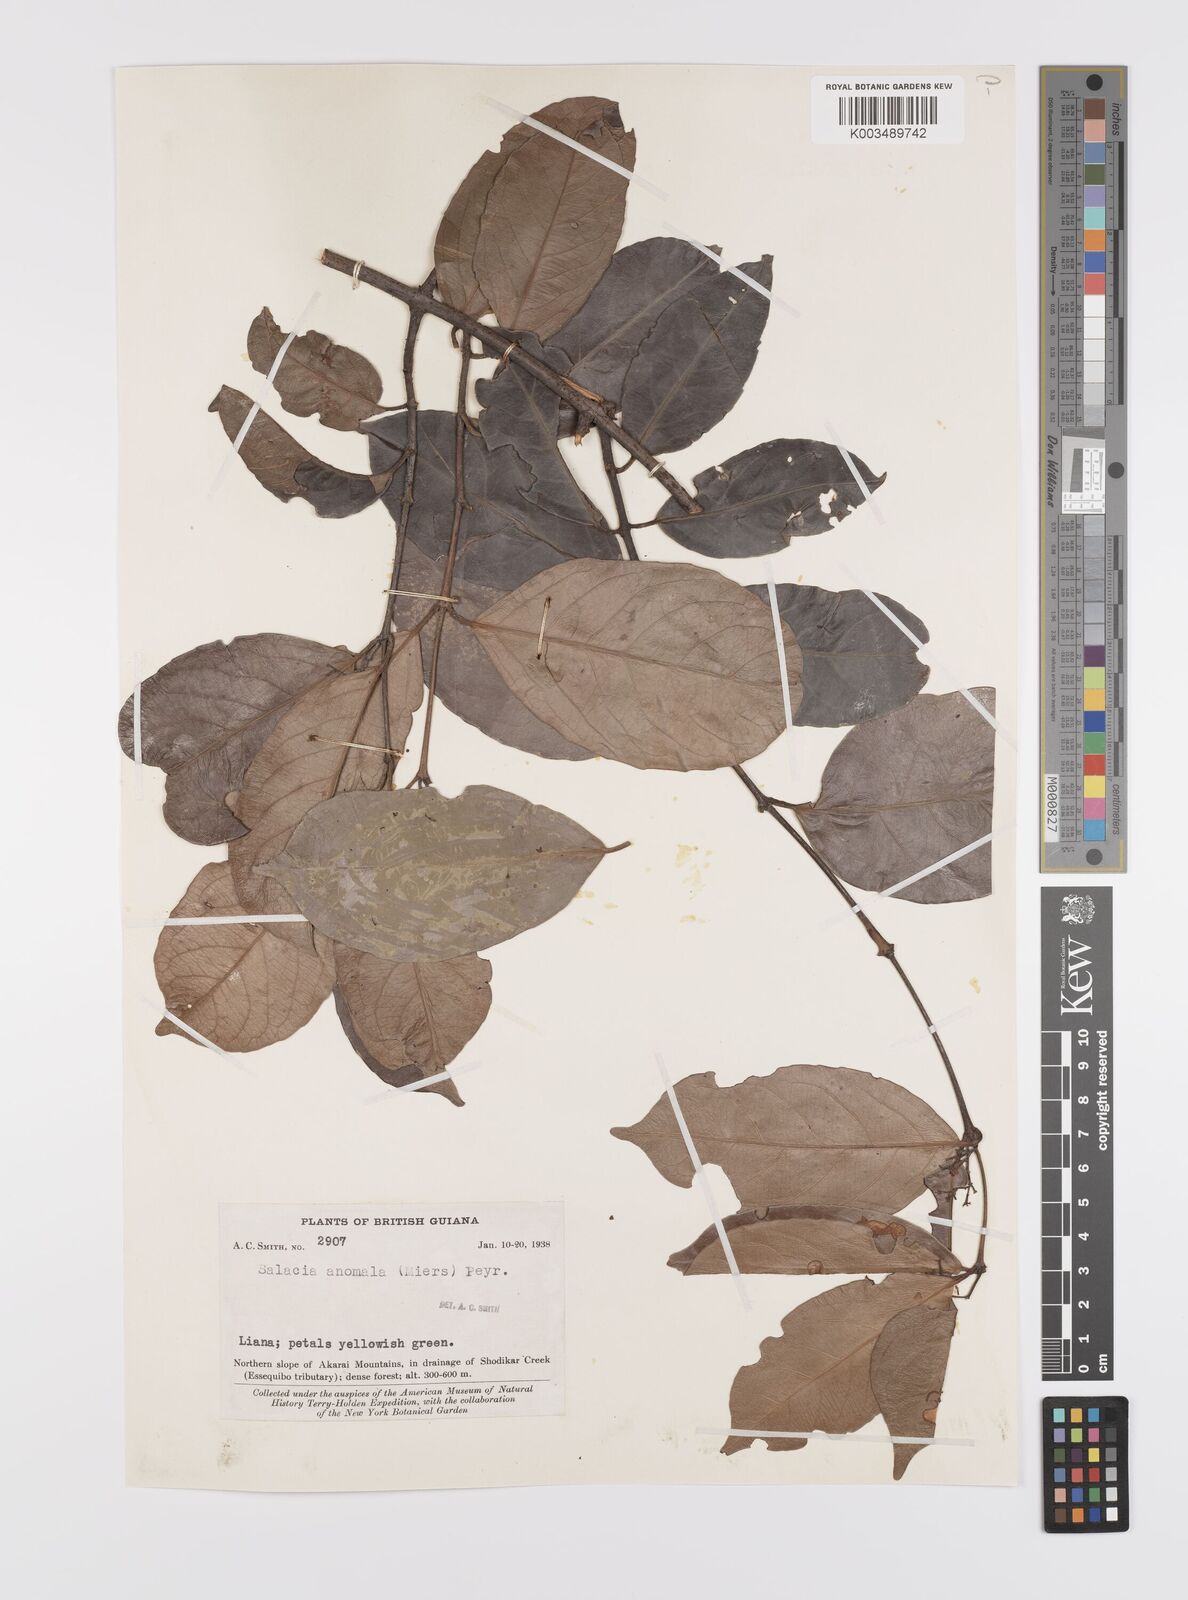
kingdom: Plantae
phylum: Tracheophyta
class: Magnoliopsida
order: Celastrales
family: Celastraceae
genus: Cheiloclinium
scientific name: Cheiloclinium anomalum
